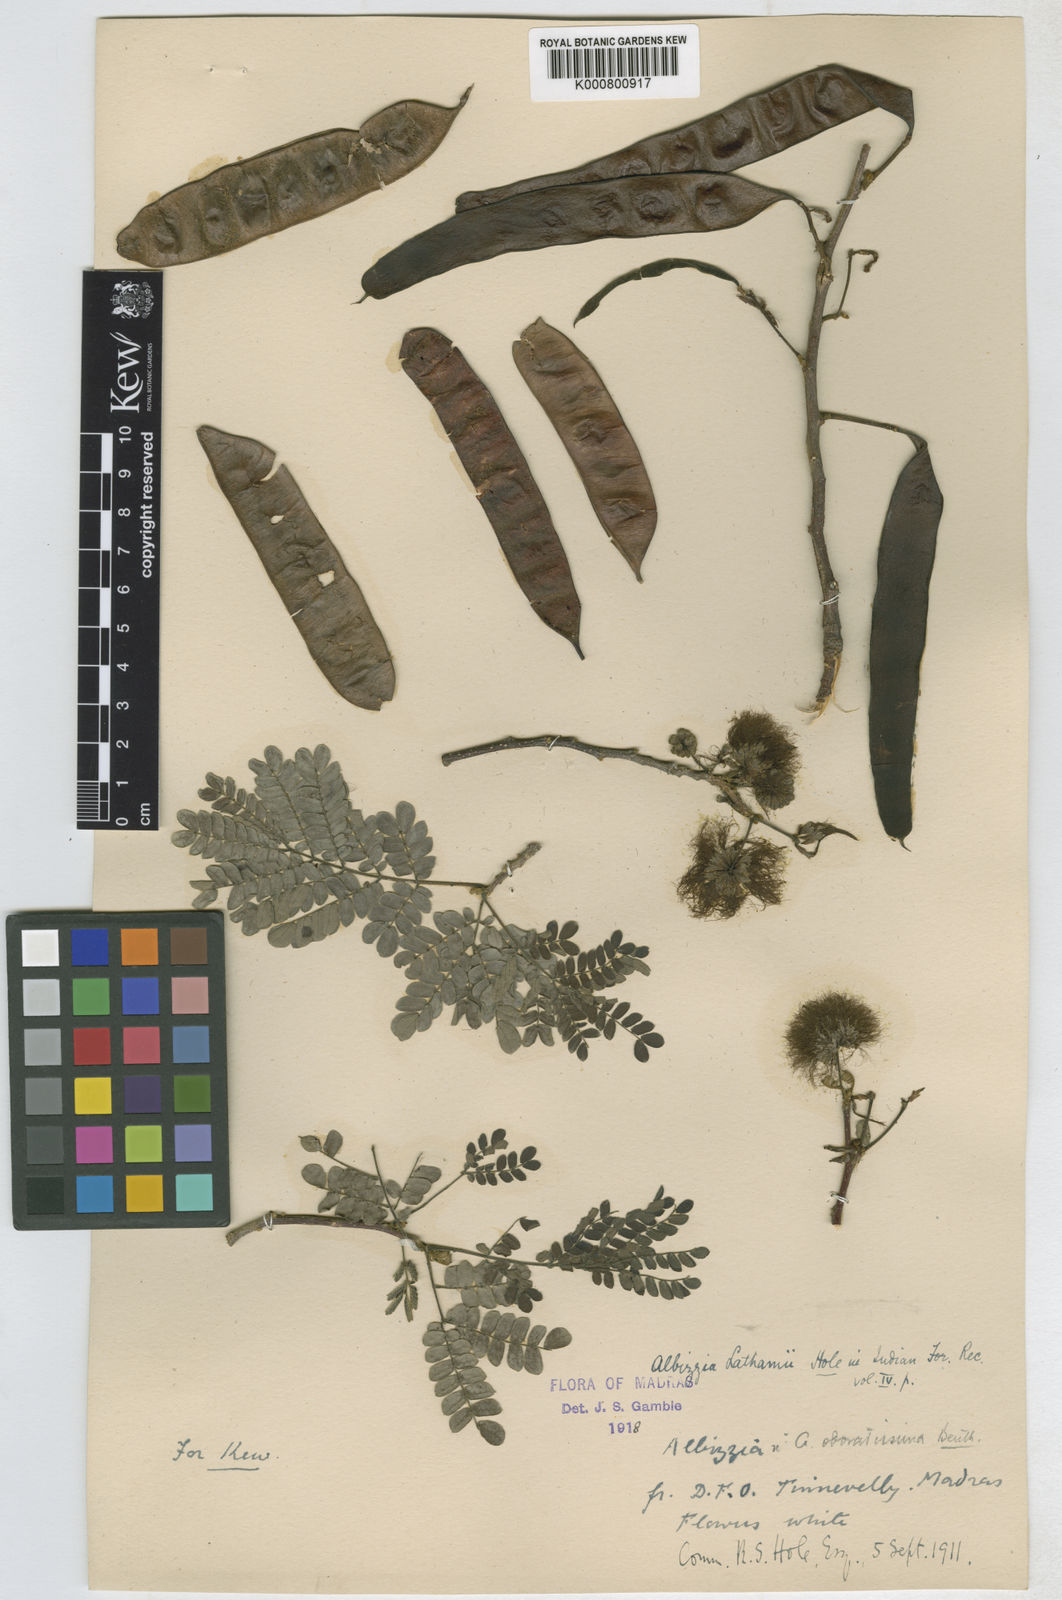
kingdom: Plantae
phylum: Tracheophyta
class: Magnoliopsida
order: Fabales
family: Fabaceae
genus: Albizia
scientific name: Albizia lathamii
